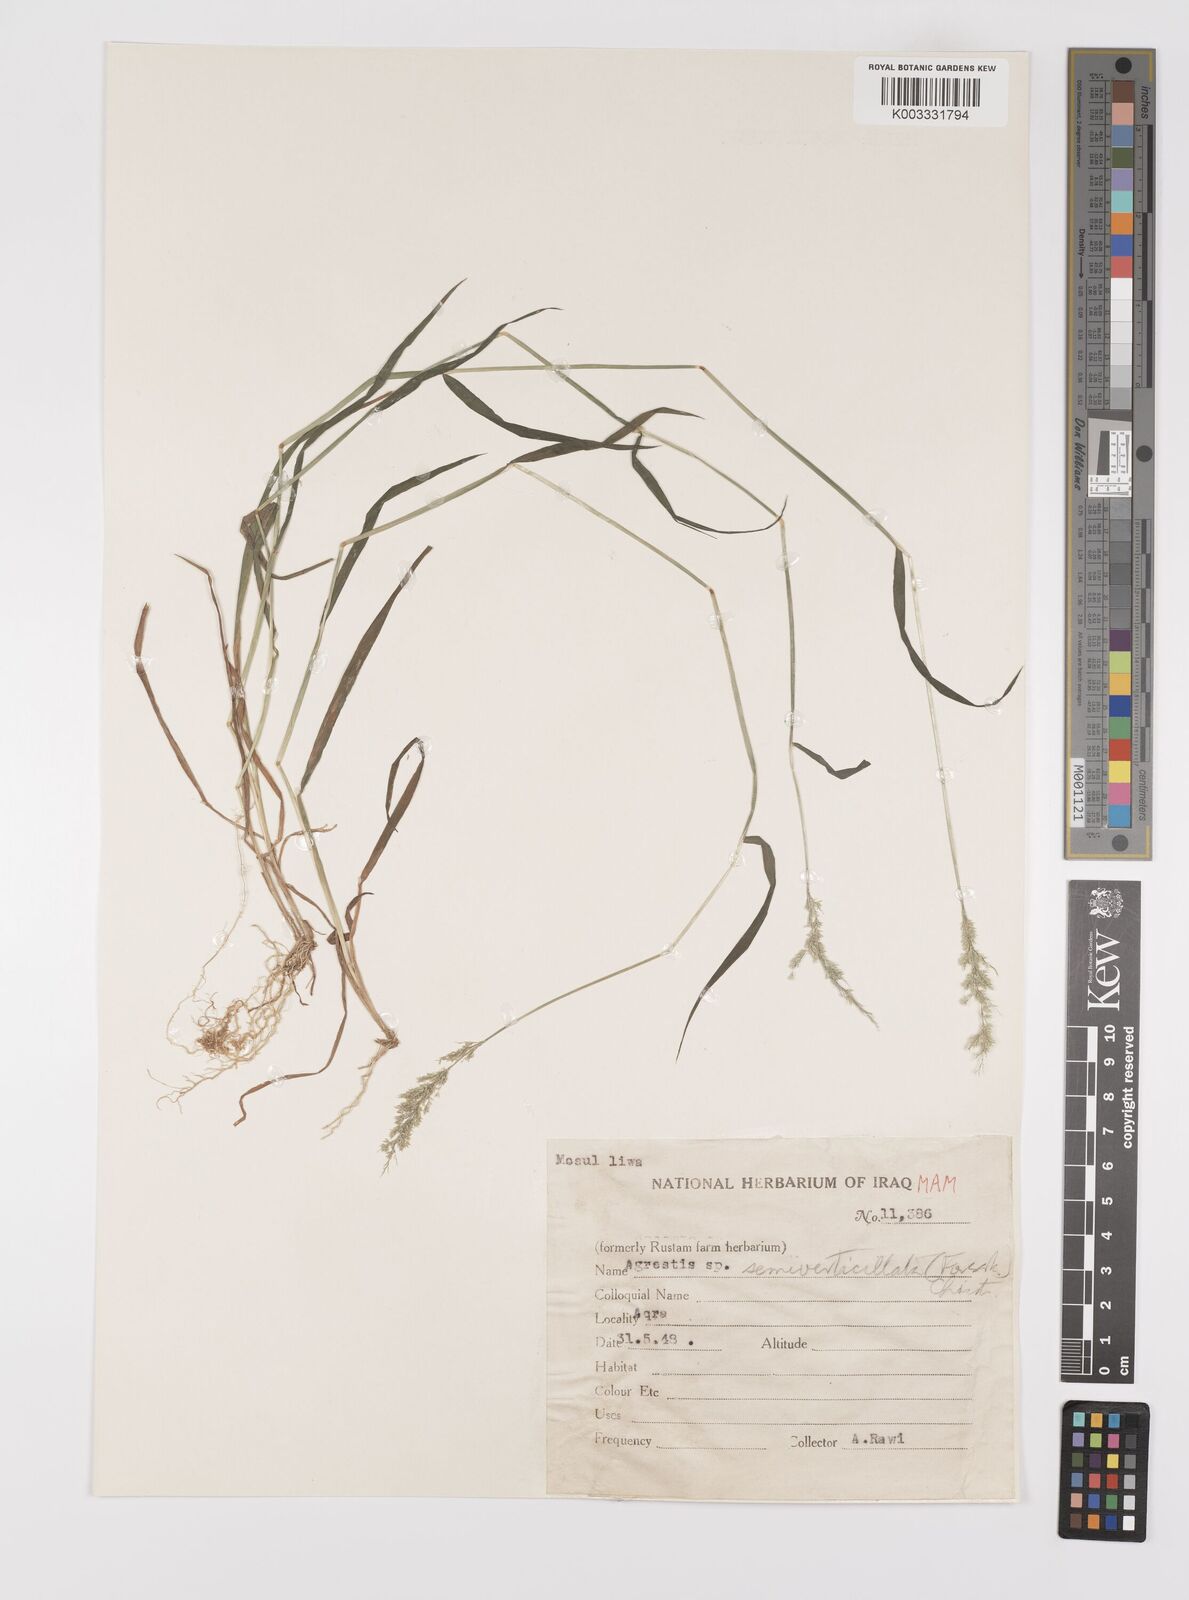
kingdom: Plantae
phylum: Tracheophyta
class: Liliopsida
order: Poales
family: Poaceae
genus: Polypogon
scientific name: Polypogon viridis
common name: Water bent
